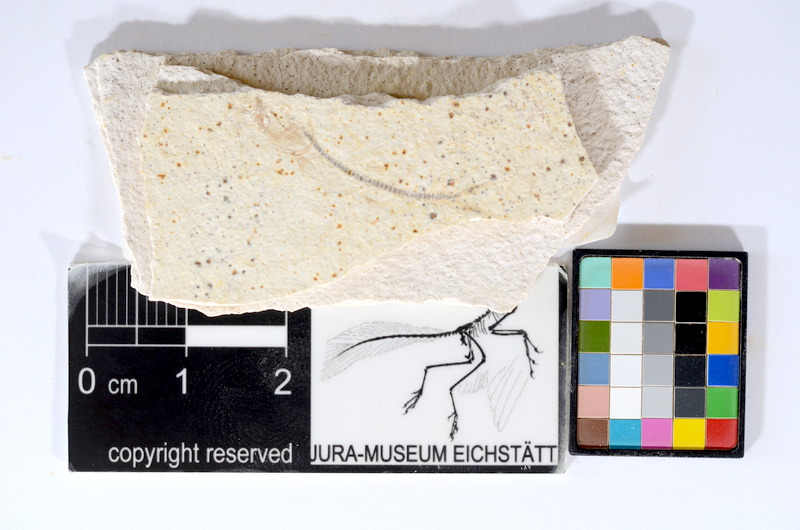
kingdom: Animalia
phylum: Chordata
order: Salmoniformes
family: Orthogonikleithridae
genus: Orthogonikleithrus
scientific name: Orthogonikleithrus hoelli
